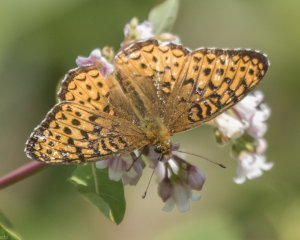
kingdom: Animalia
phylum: Arthropoda
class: Insecta
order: Lepidoptera
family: Nymphalidae
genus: Speyeria
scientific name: Speyeria atlantis
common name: Atlantis Fritillary
